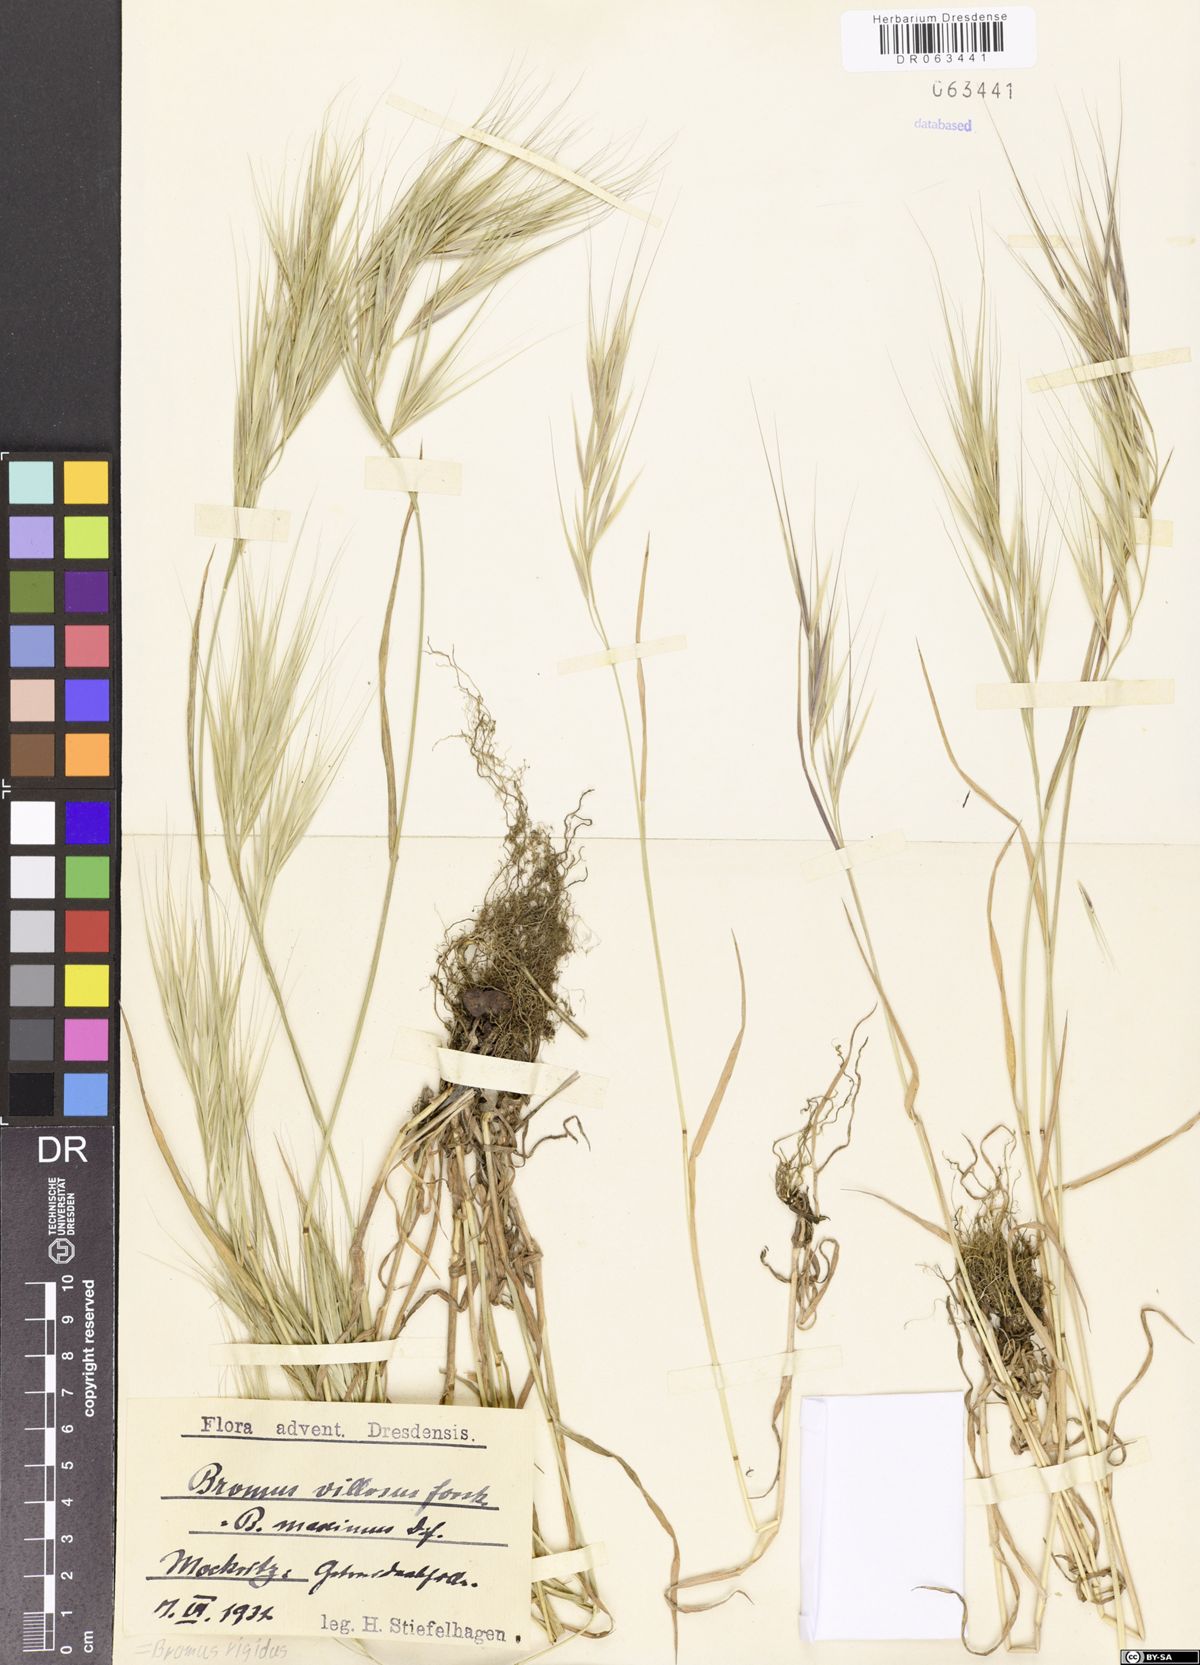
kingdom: Plantae
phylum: Tracheophyta
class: Liliopsida
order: Poales
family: Poaceae
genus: Bromus
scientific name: Bromus rigidus
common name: Ripgut brome
